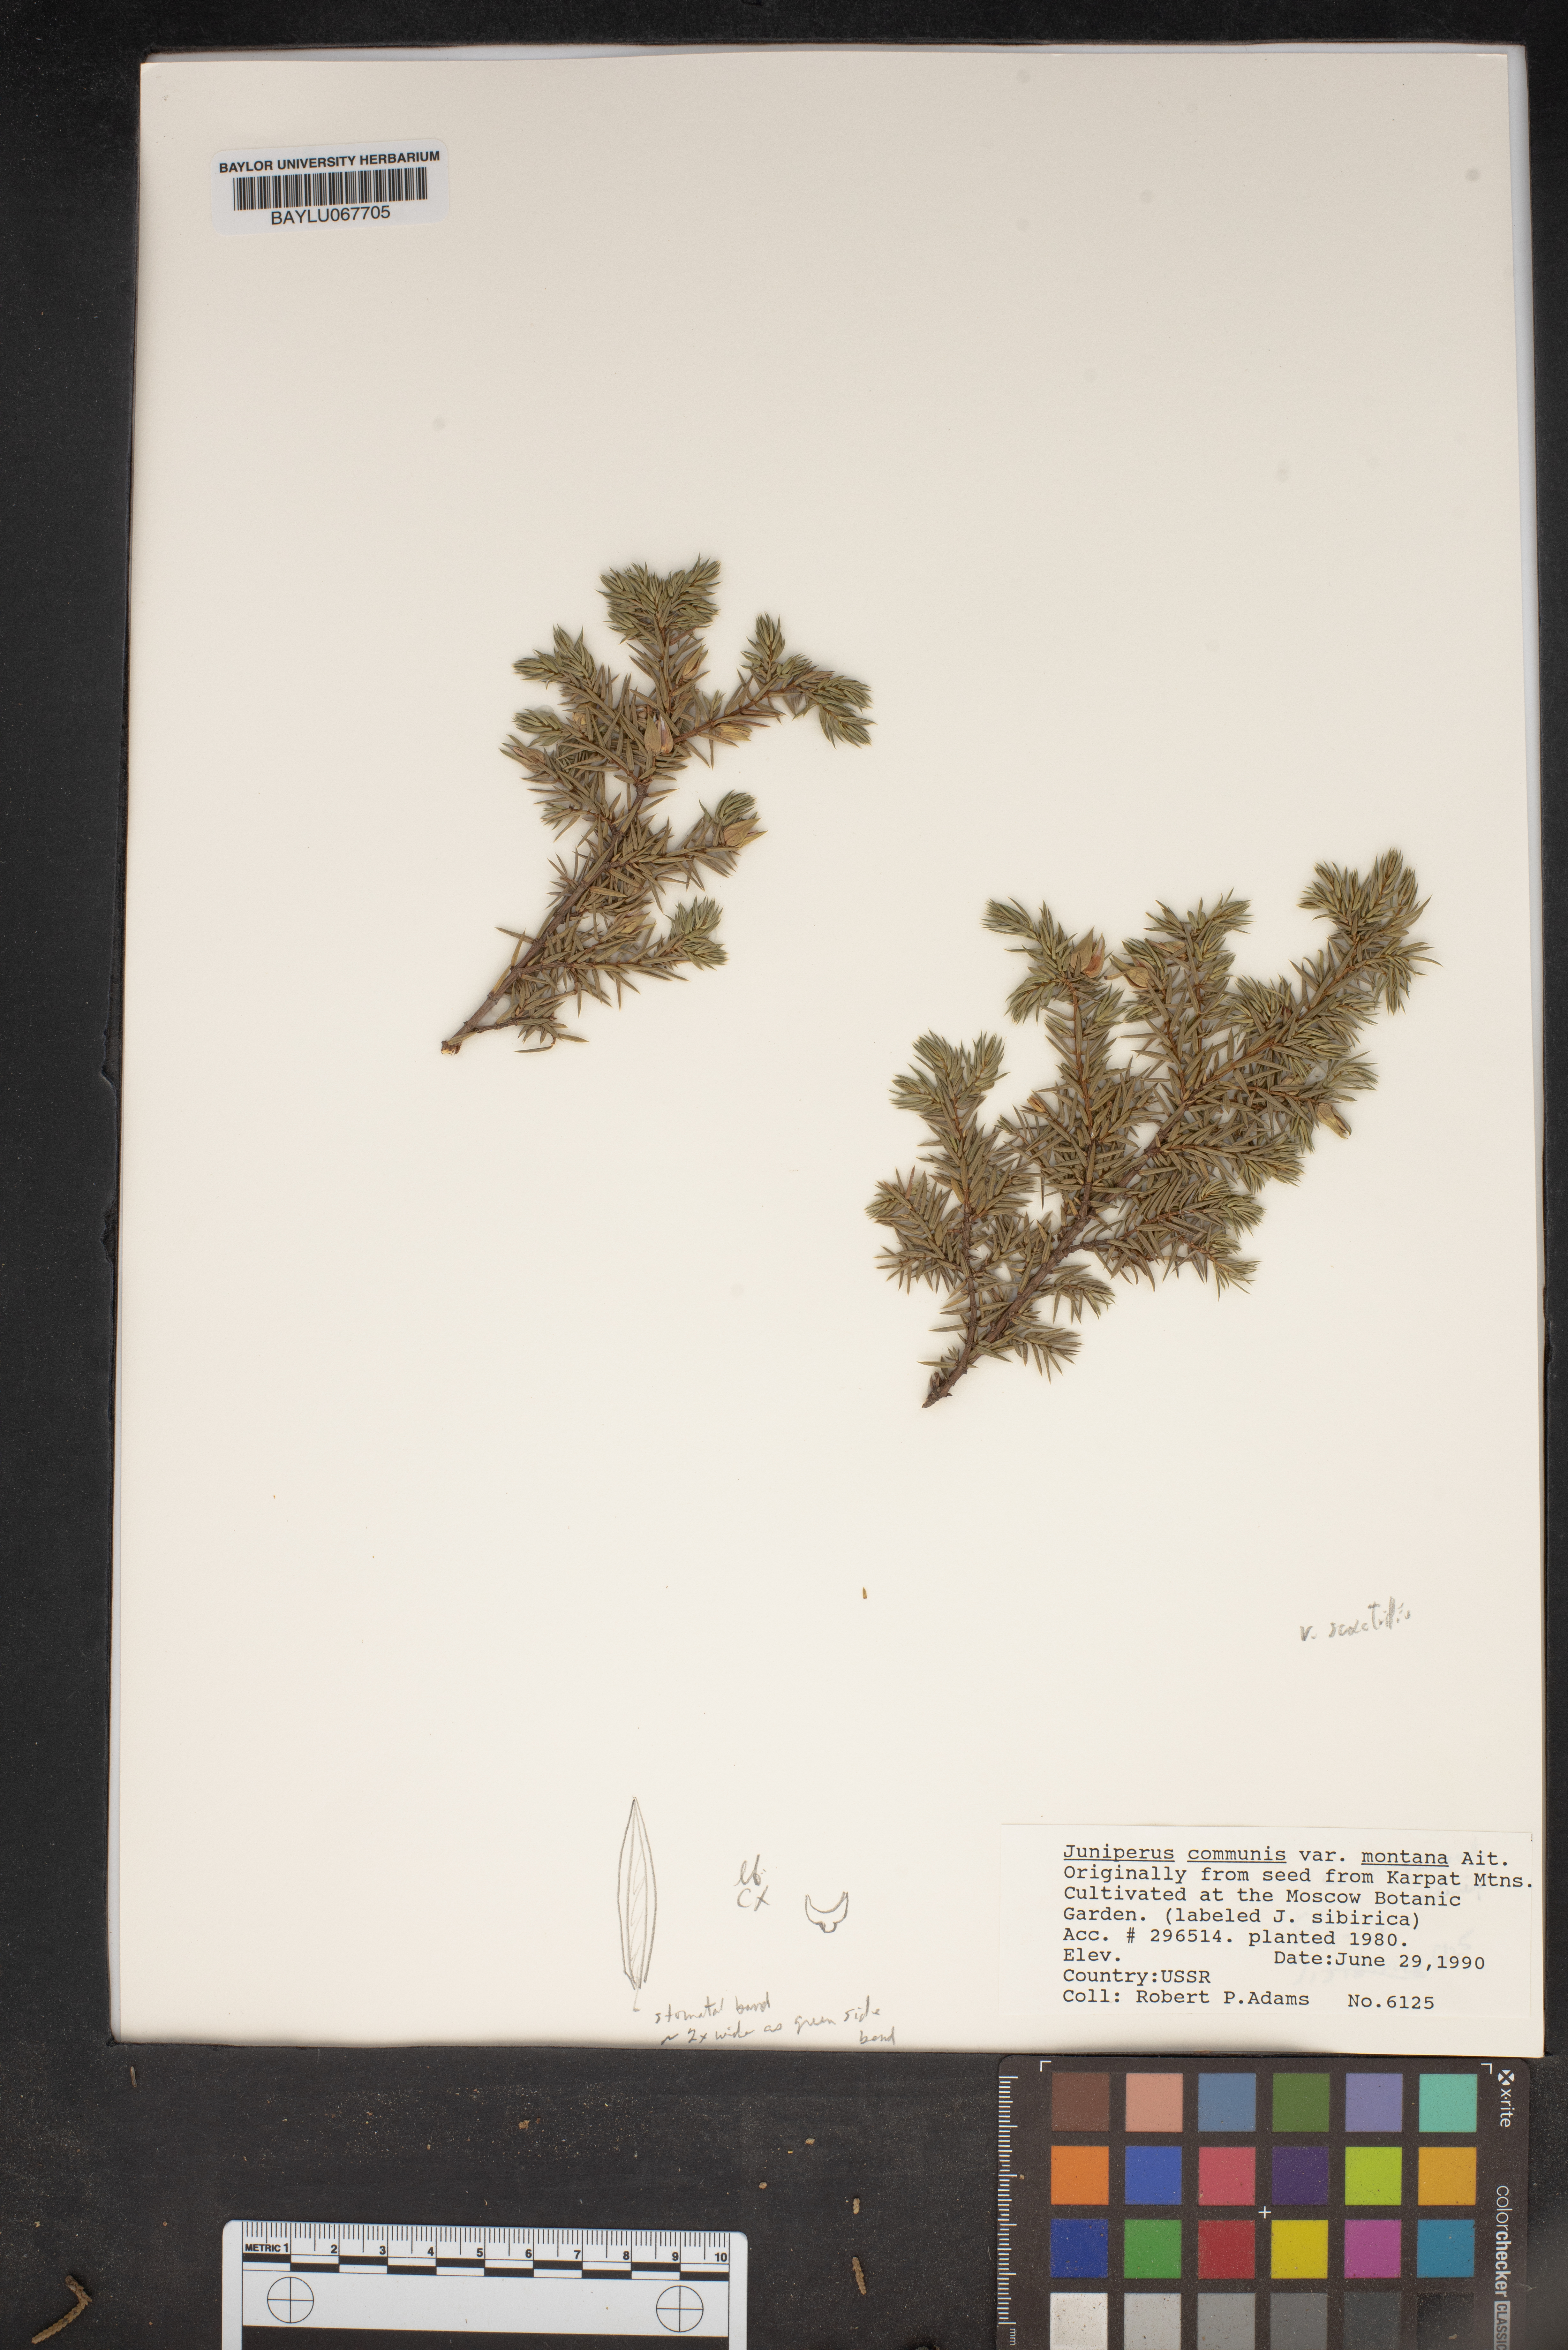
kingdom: Plantae
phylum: Tracheophyta
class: Pinopsida
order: Pinales
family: Cupressaceae
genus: Juniperus
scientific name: Juniperus communis
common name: Common juniper
